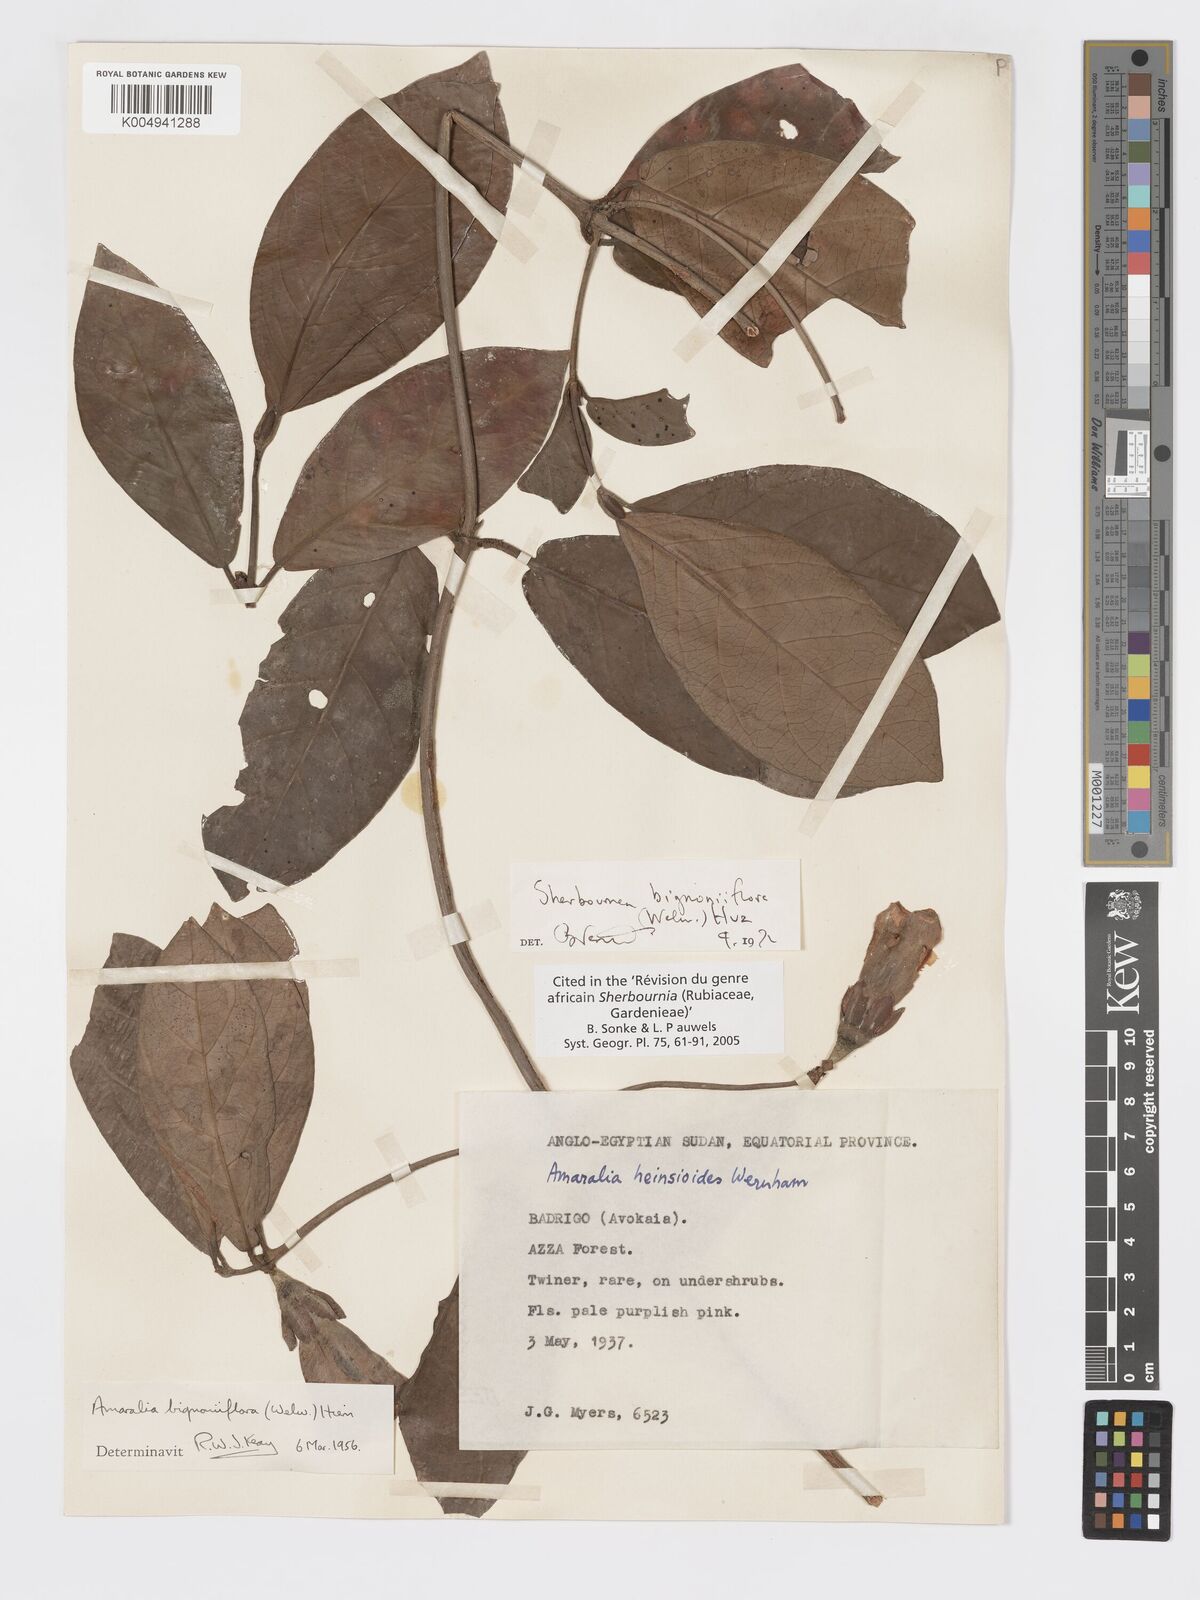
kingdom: Plantae
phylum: Tracheophyta
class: Magnoliopsida
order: Gentianales
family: Rubiaceae
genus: Sherbournia
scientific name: Sherbournia bignoniiflora
